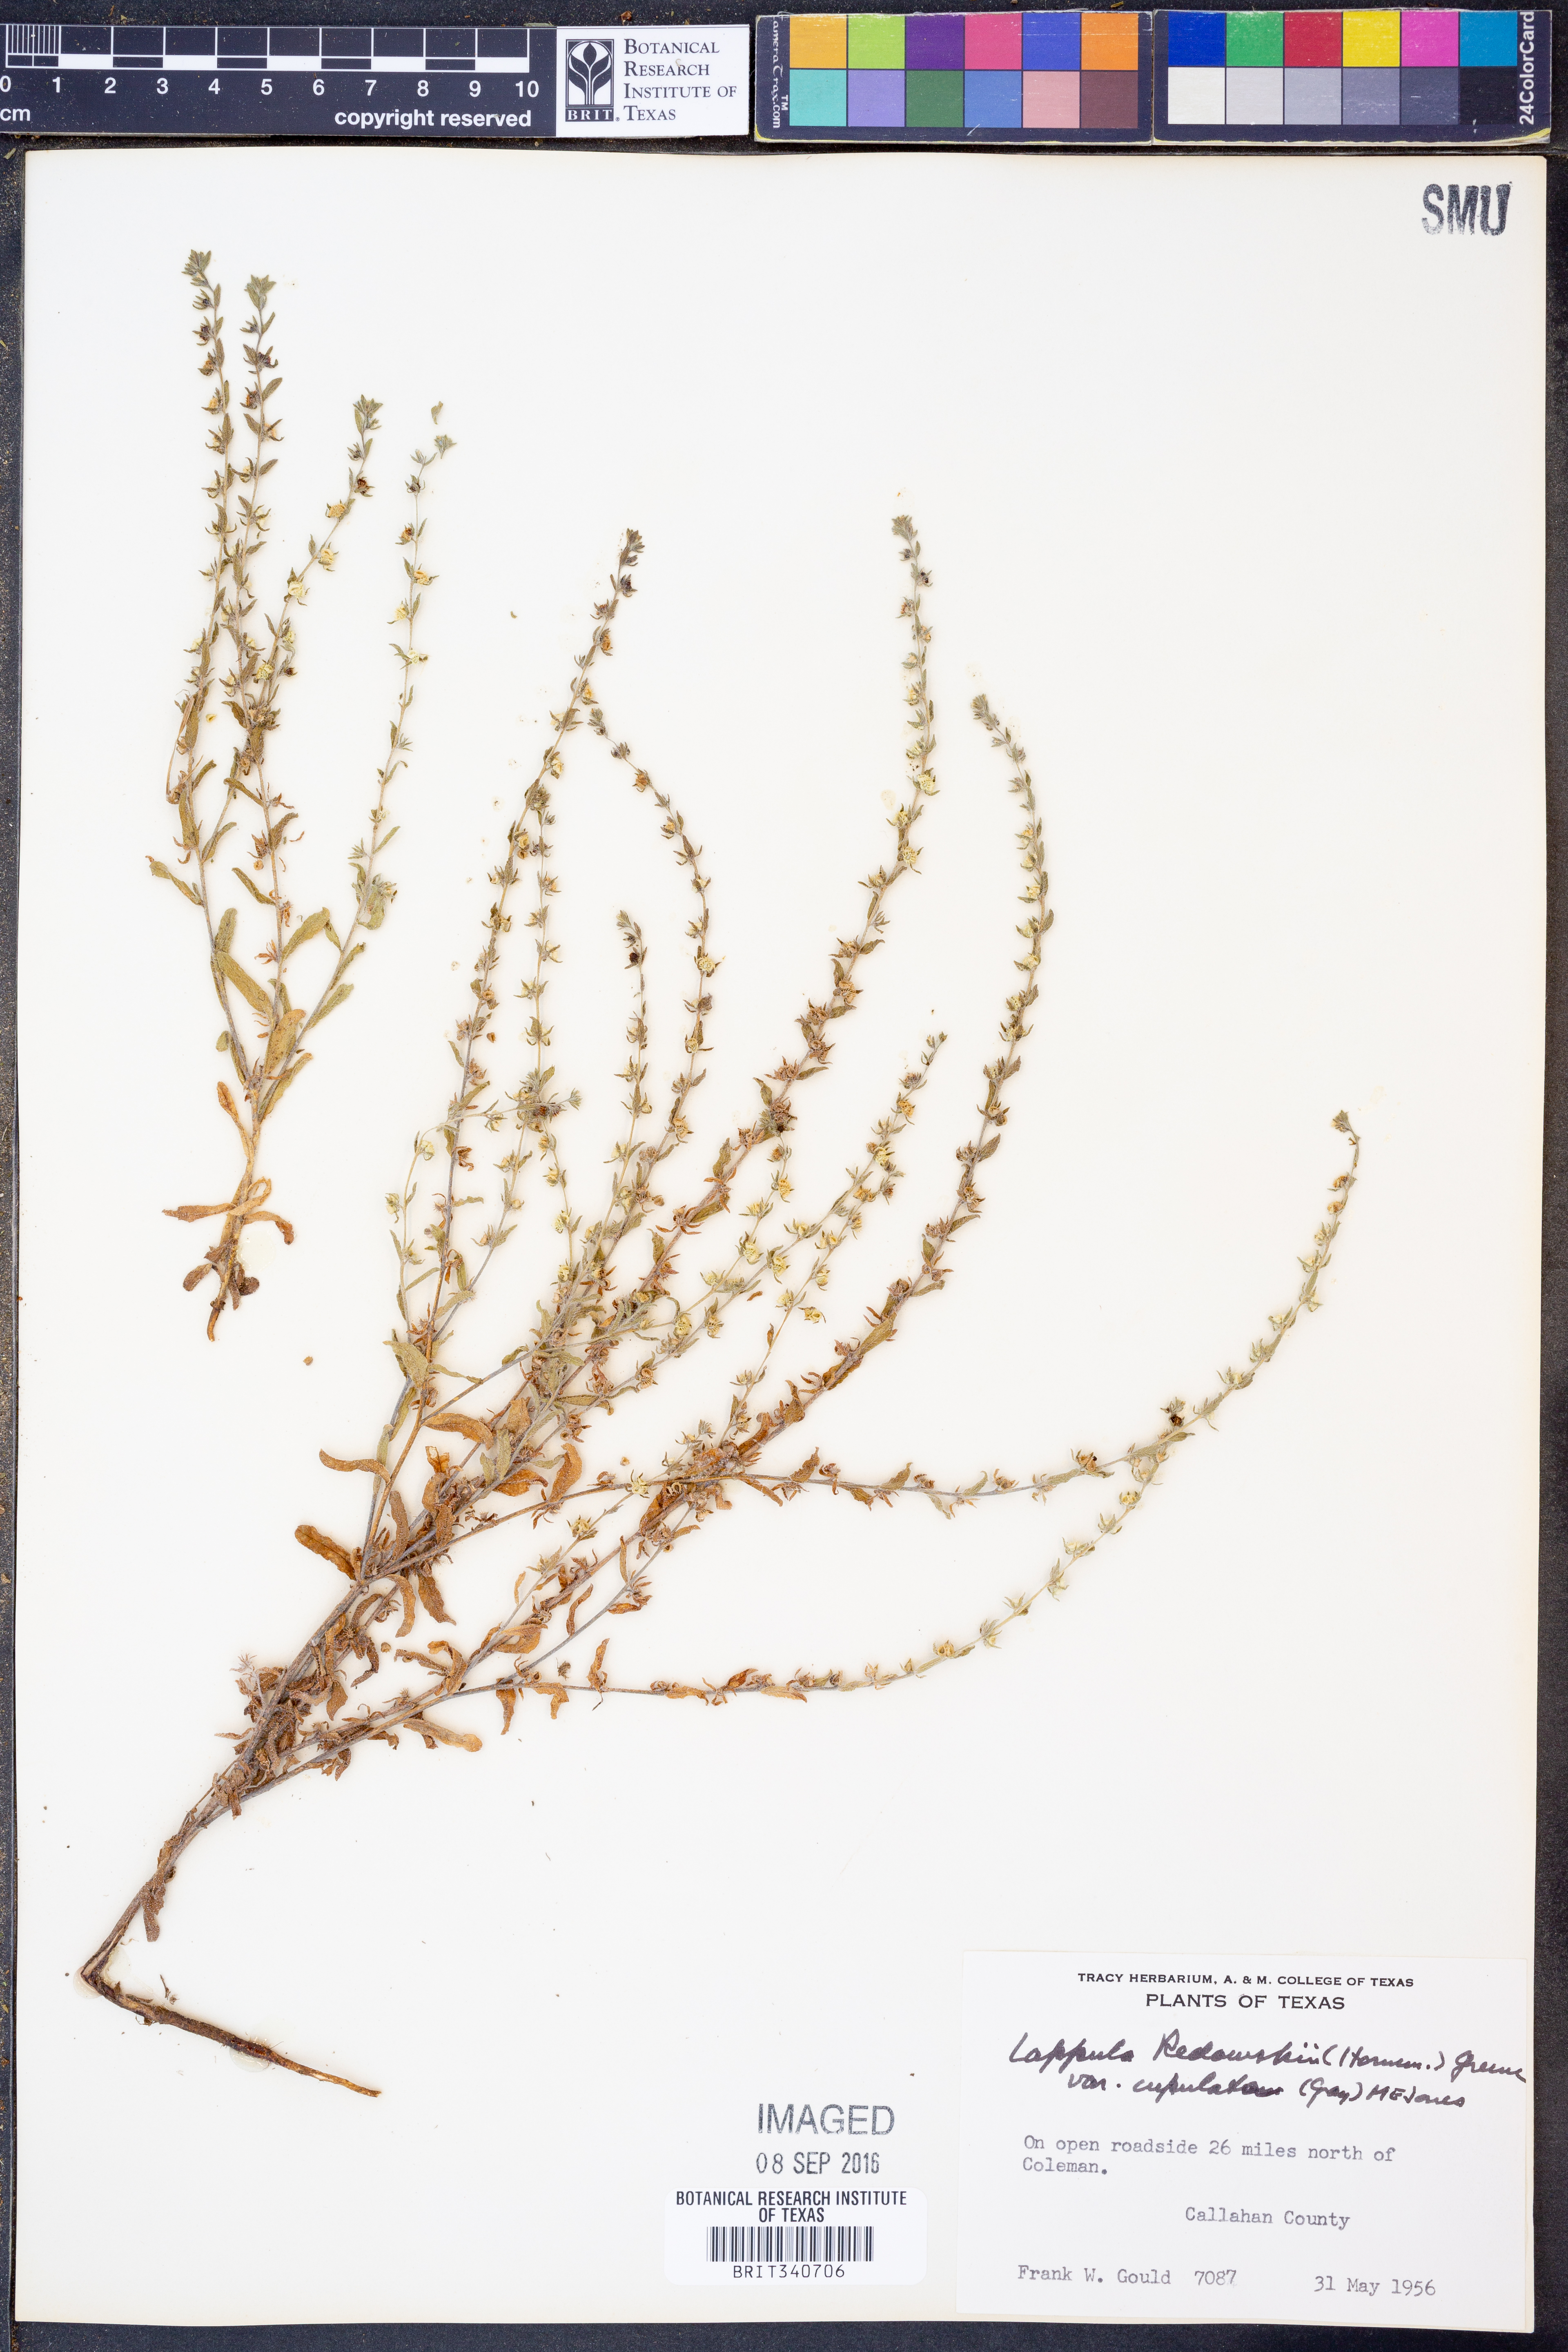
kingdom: Plantae
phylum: Tracheophyta
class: Magnoliopsida
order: Boraginales
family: Boraginaceae
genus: Lappula
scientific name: Lappula occidentalis
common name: Western stickseed
